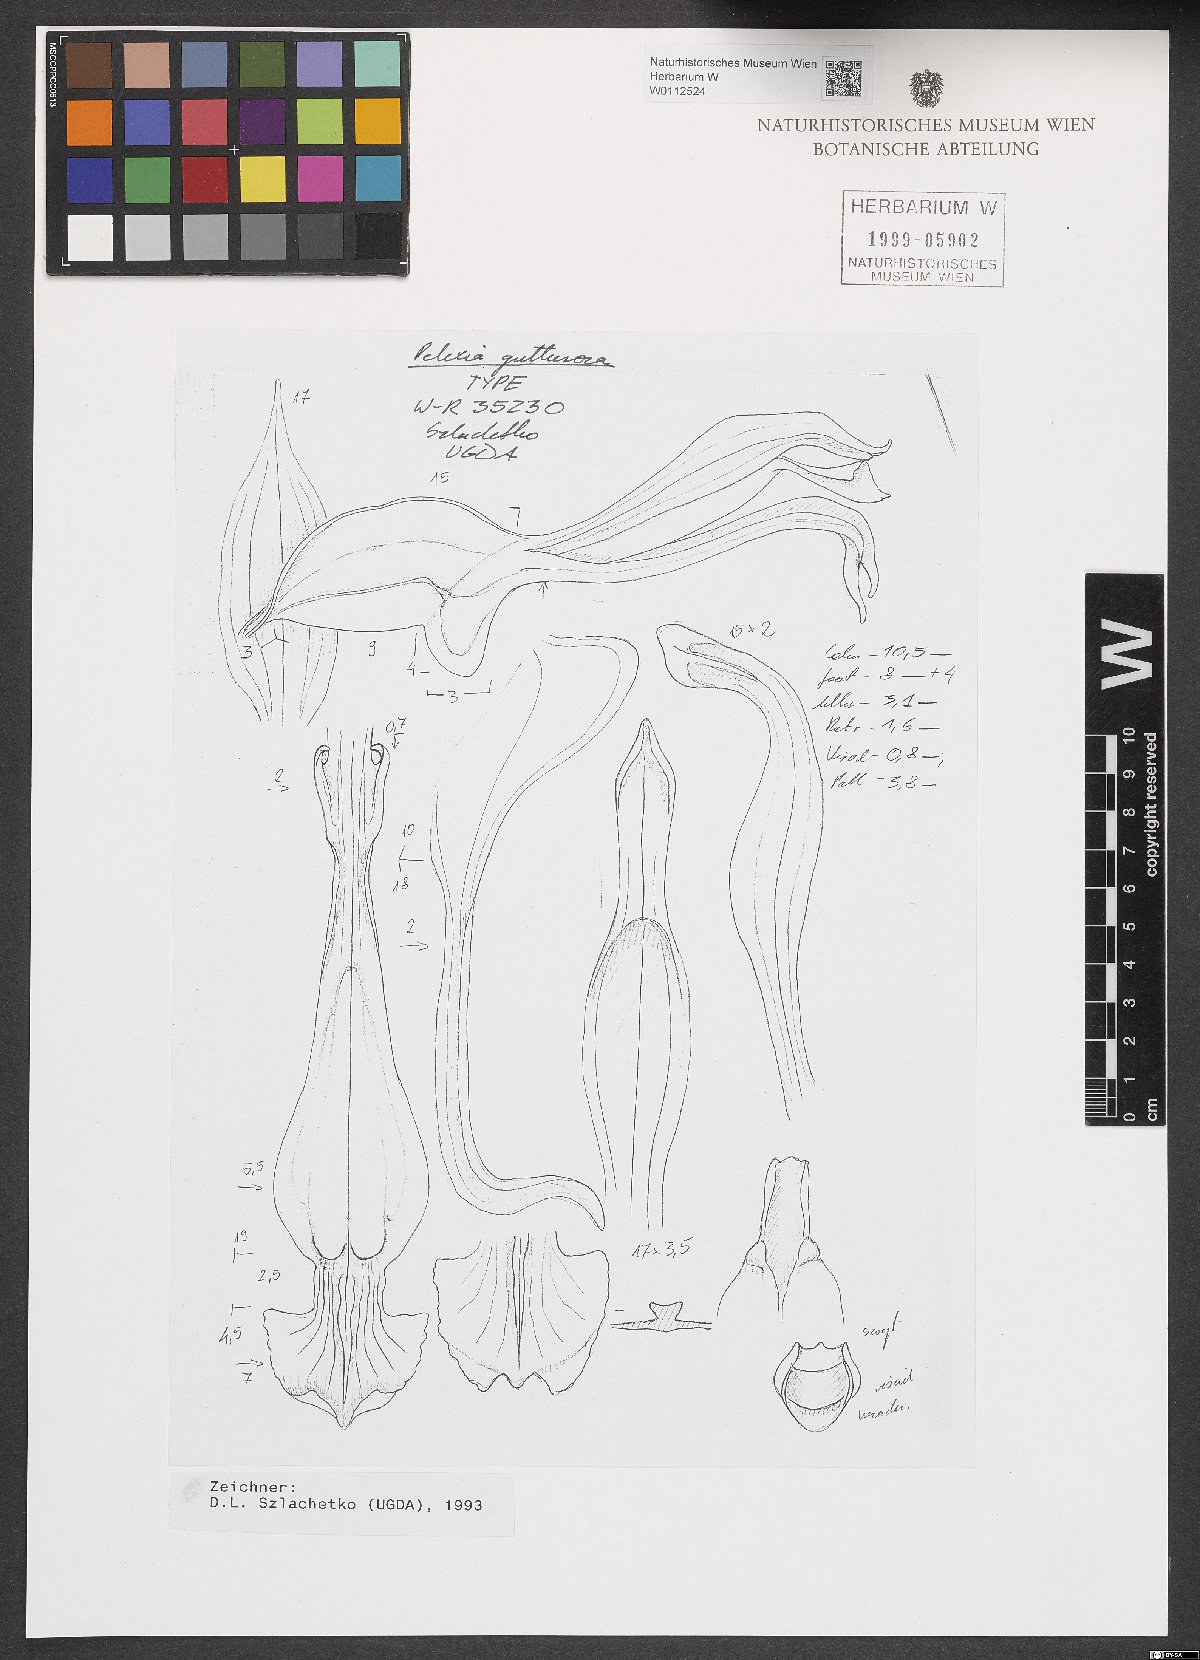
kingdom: Plantae
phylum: Tracheophyta
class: Liliopsida
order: Asparagales
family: Orchidaceae
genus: Pelexia
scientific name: Pelexia gutturosa
